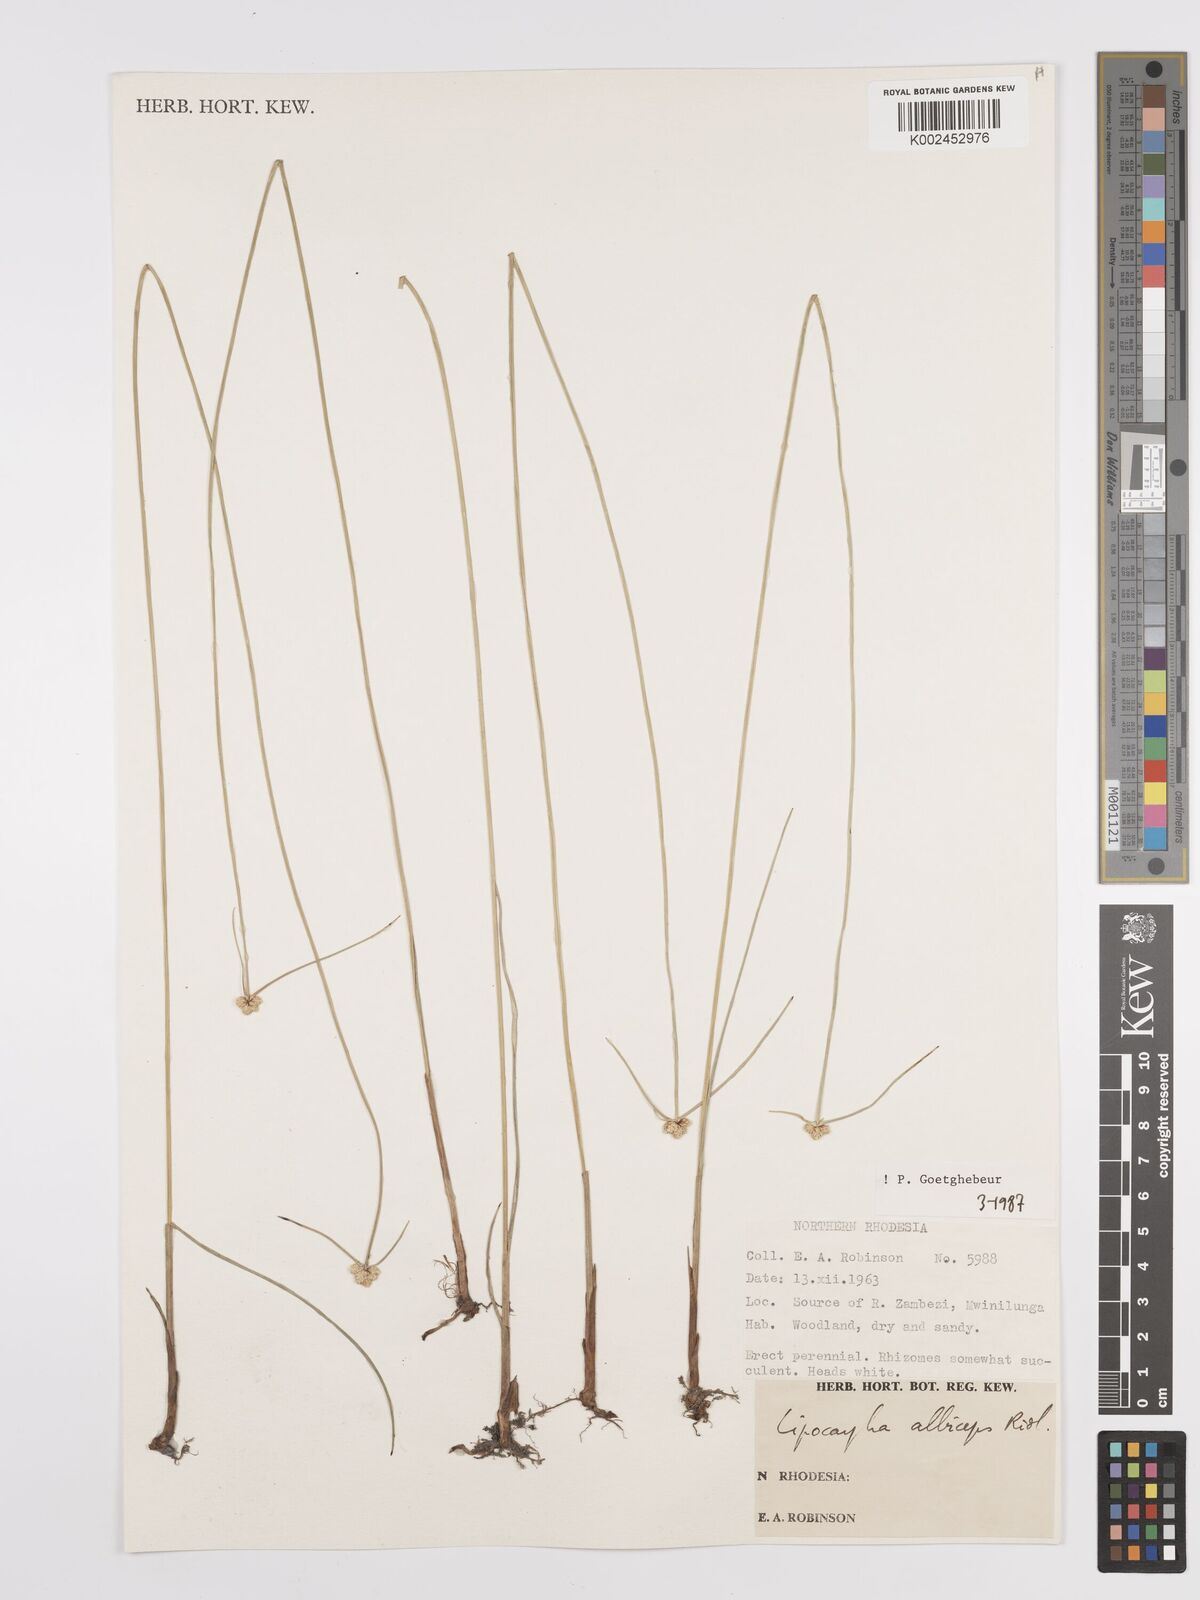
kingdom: Plantae
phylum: Tracheophyta
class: Liliopsida
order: Poales
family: Cyperaceae
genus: Cyperus
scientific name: Cyperus albiceps
